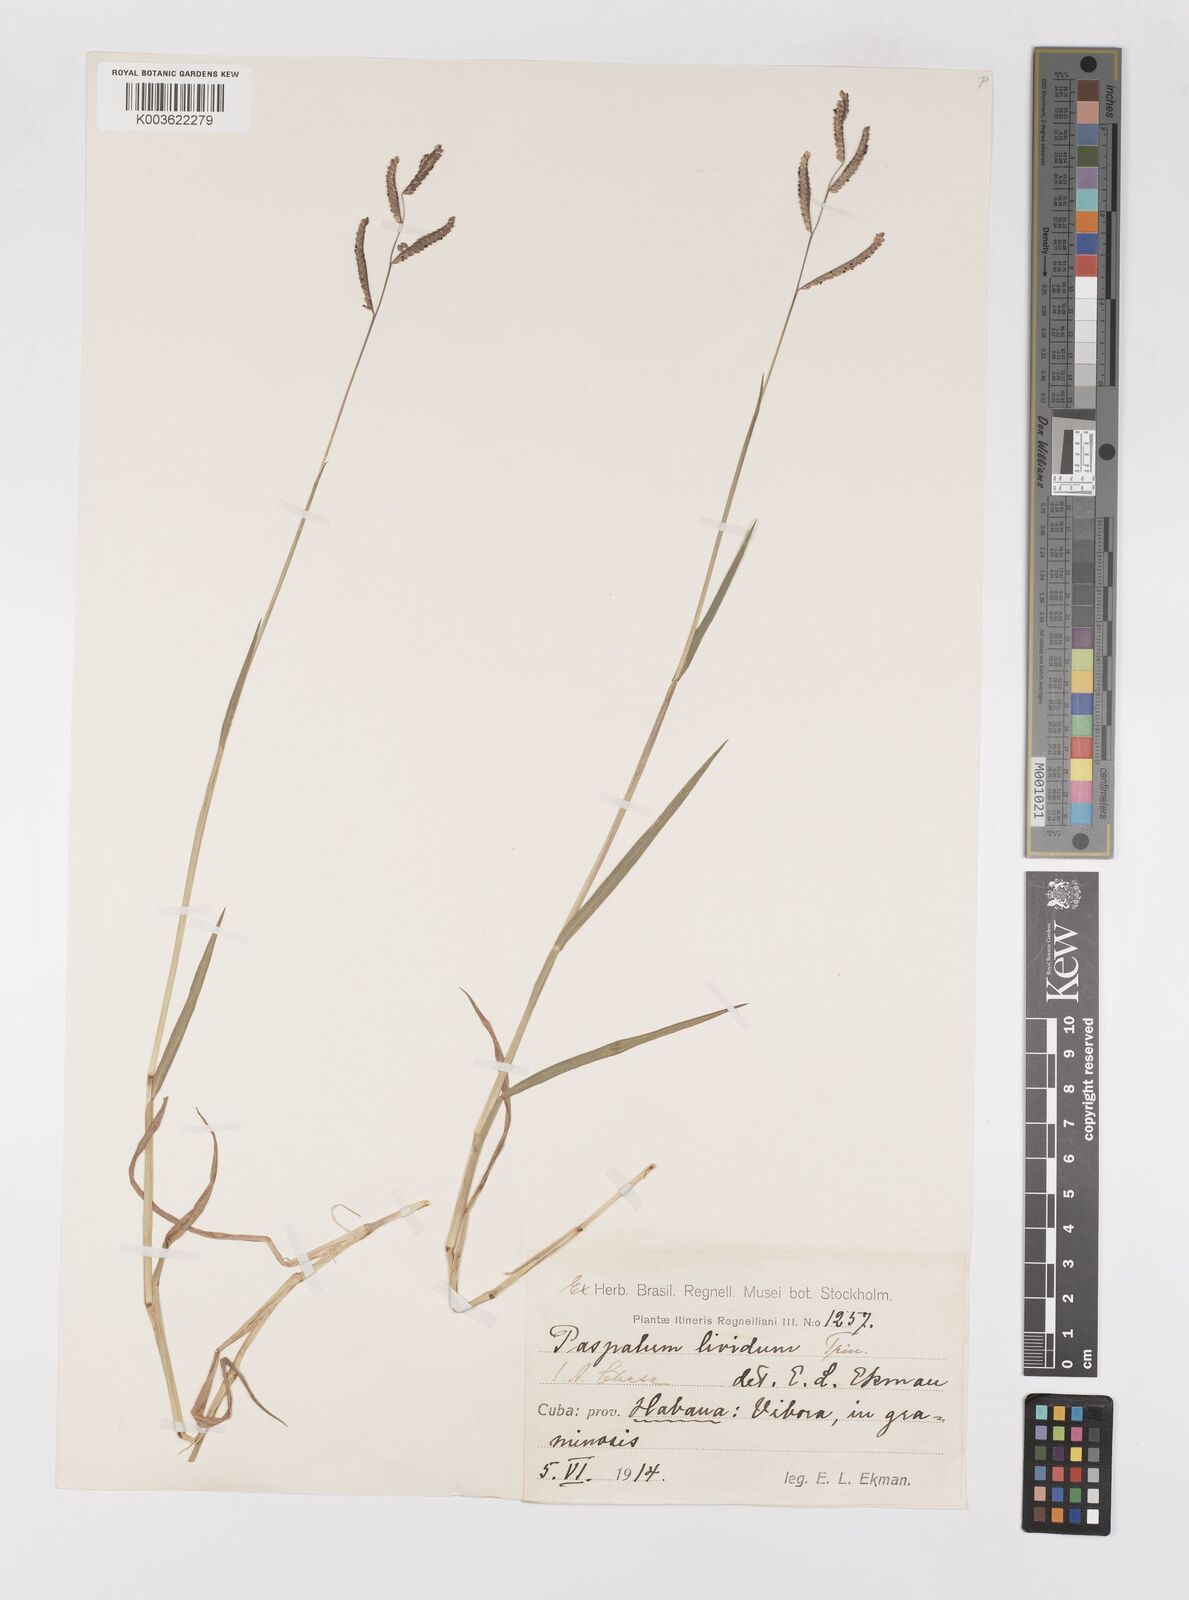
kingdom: Plantae
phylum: Tracheophyta
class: Liliopsida
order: Poales
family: Poaceae
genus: Paspalum
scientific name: Paspalum denticulatum
